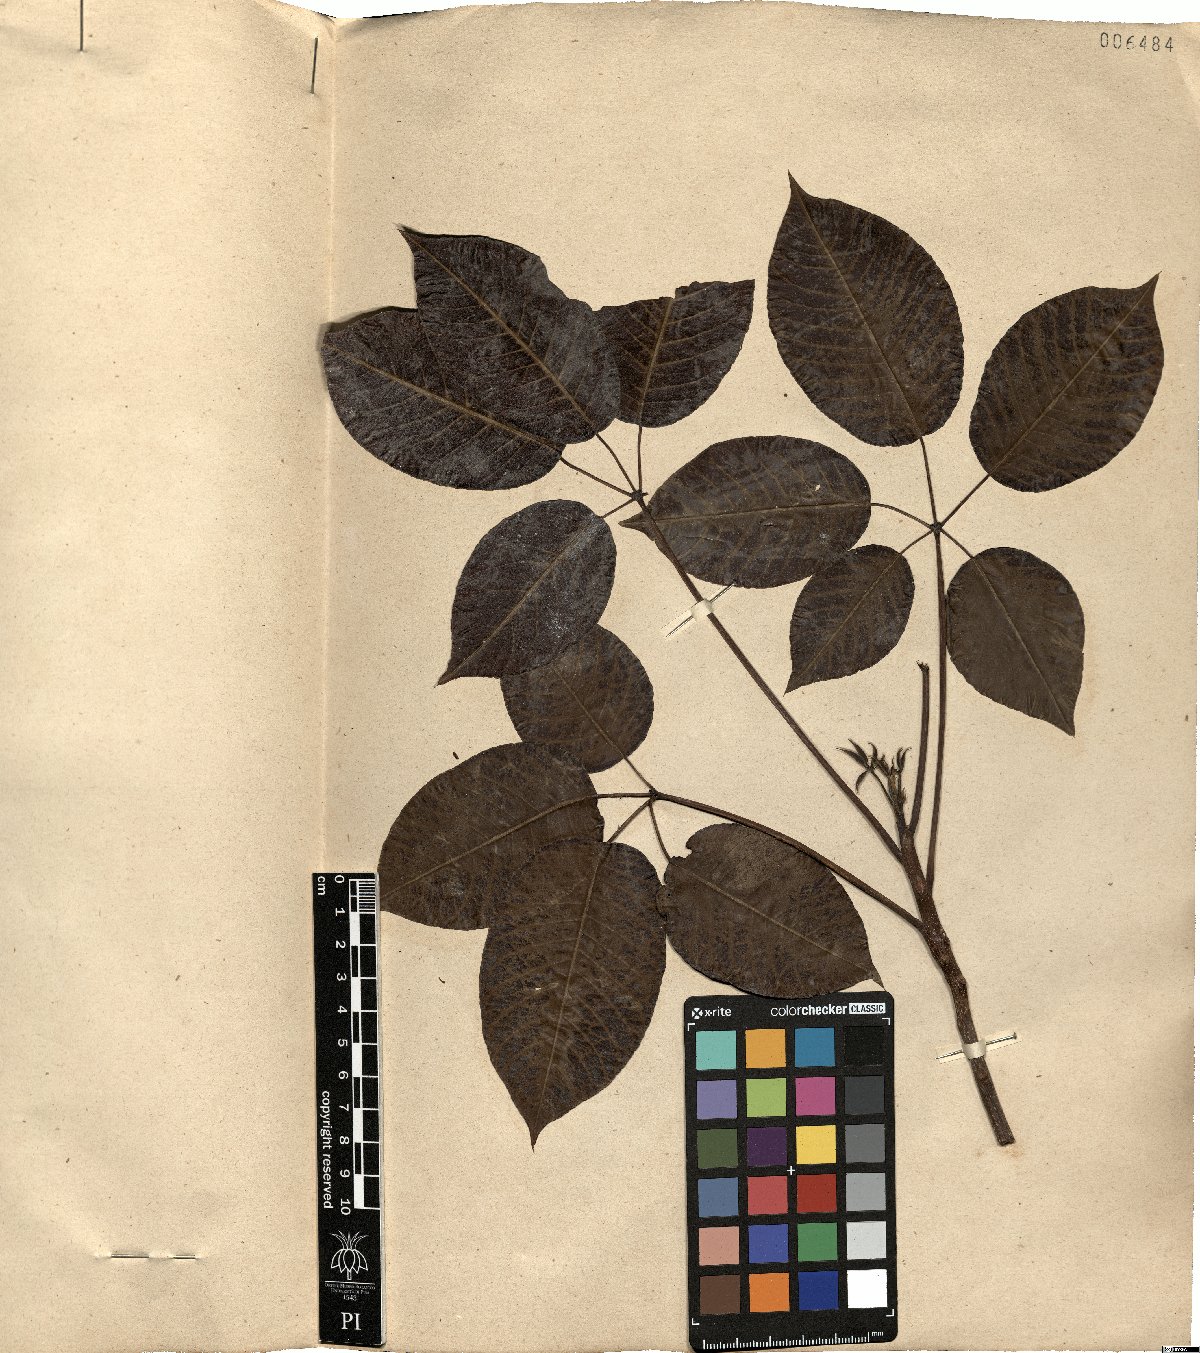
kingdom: Plantae
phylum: Tracheophyta
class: Magnoliopsida
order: Malpighiales
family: Euphorbiaceae
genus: Joannesia
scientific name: Joannesia princeps
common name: Arara nut-tree
